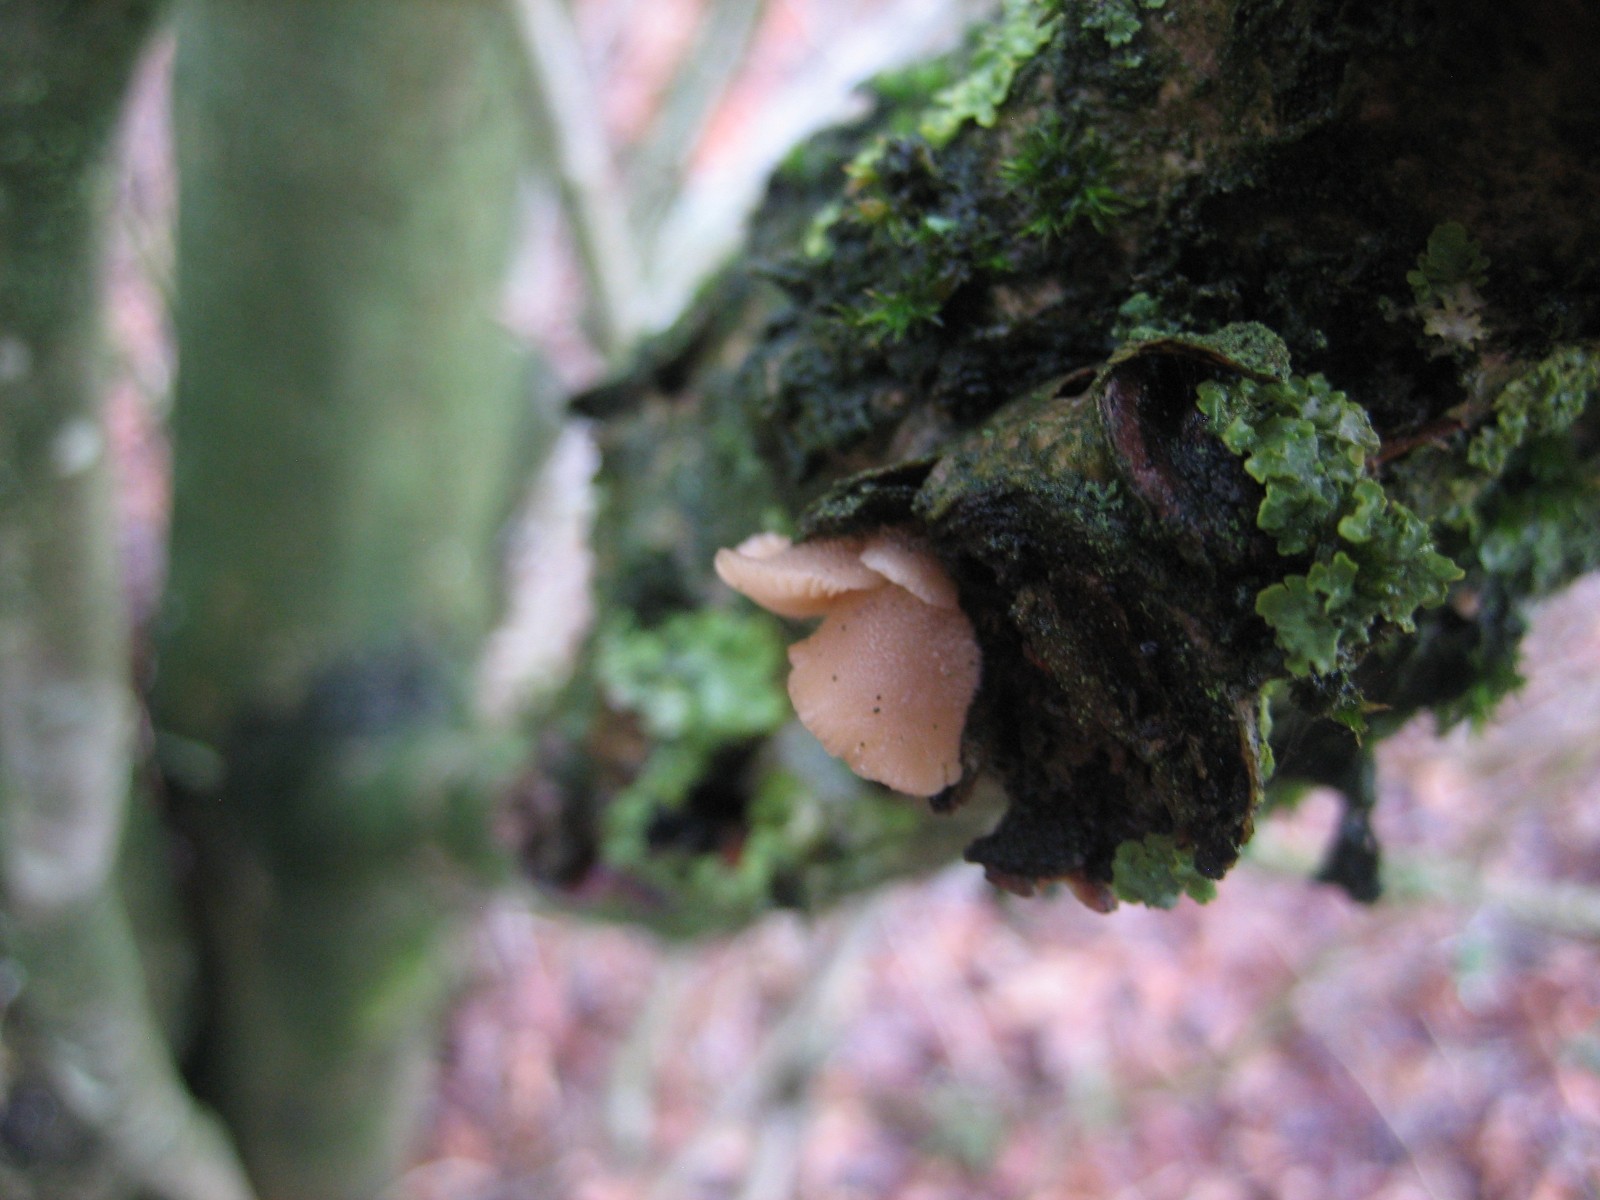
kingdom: Fungi
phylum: Basidiomycota
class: Agaricomycetes
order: Agaricales
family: Pleurotaceae
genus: Hohenbuehelia
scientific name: Hohenbuehelia
